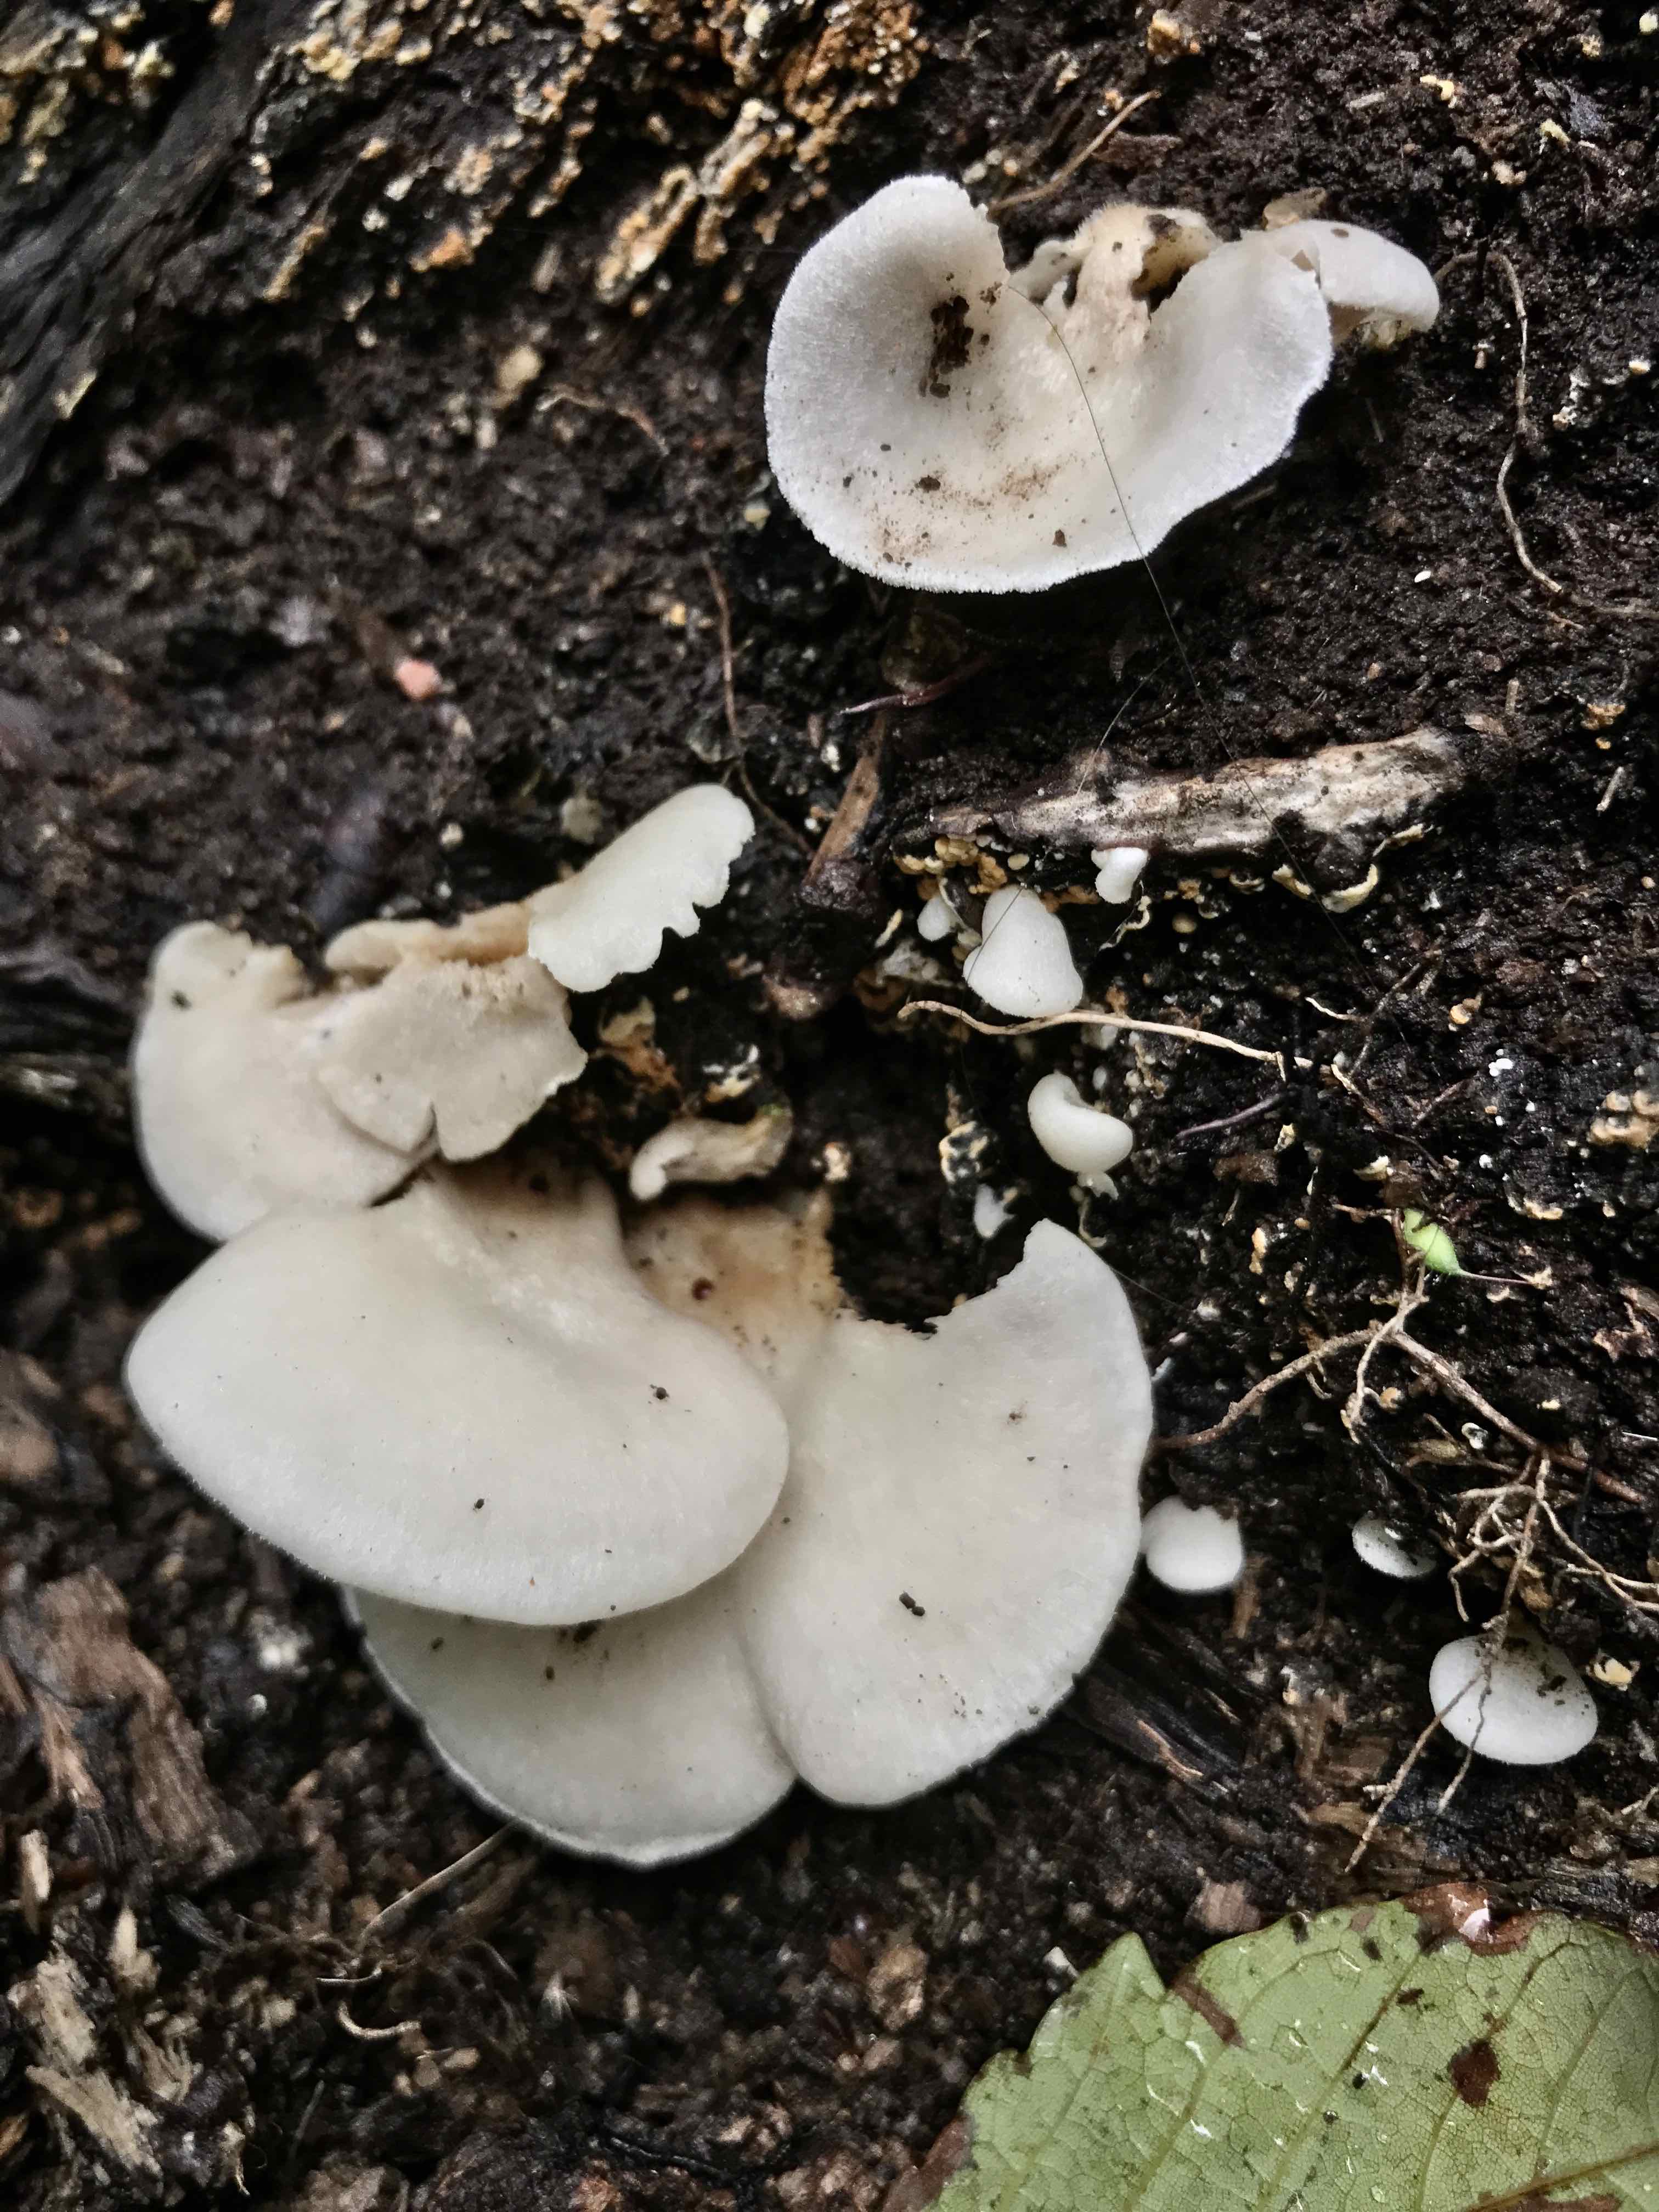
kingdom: Fungi
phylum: Basidiomycota
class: Agaricomycetes
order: Agaricales
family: Crepidotaceae
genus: Crepidotus
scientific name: Crepidotus
